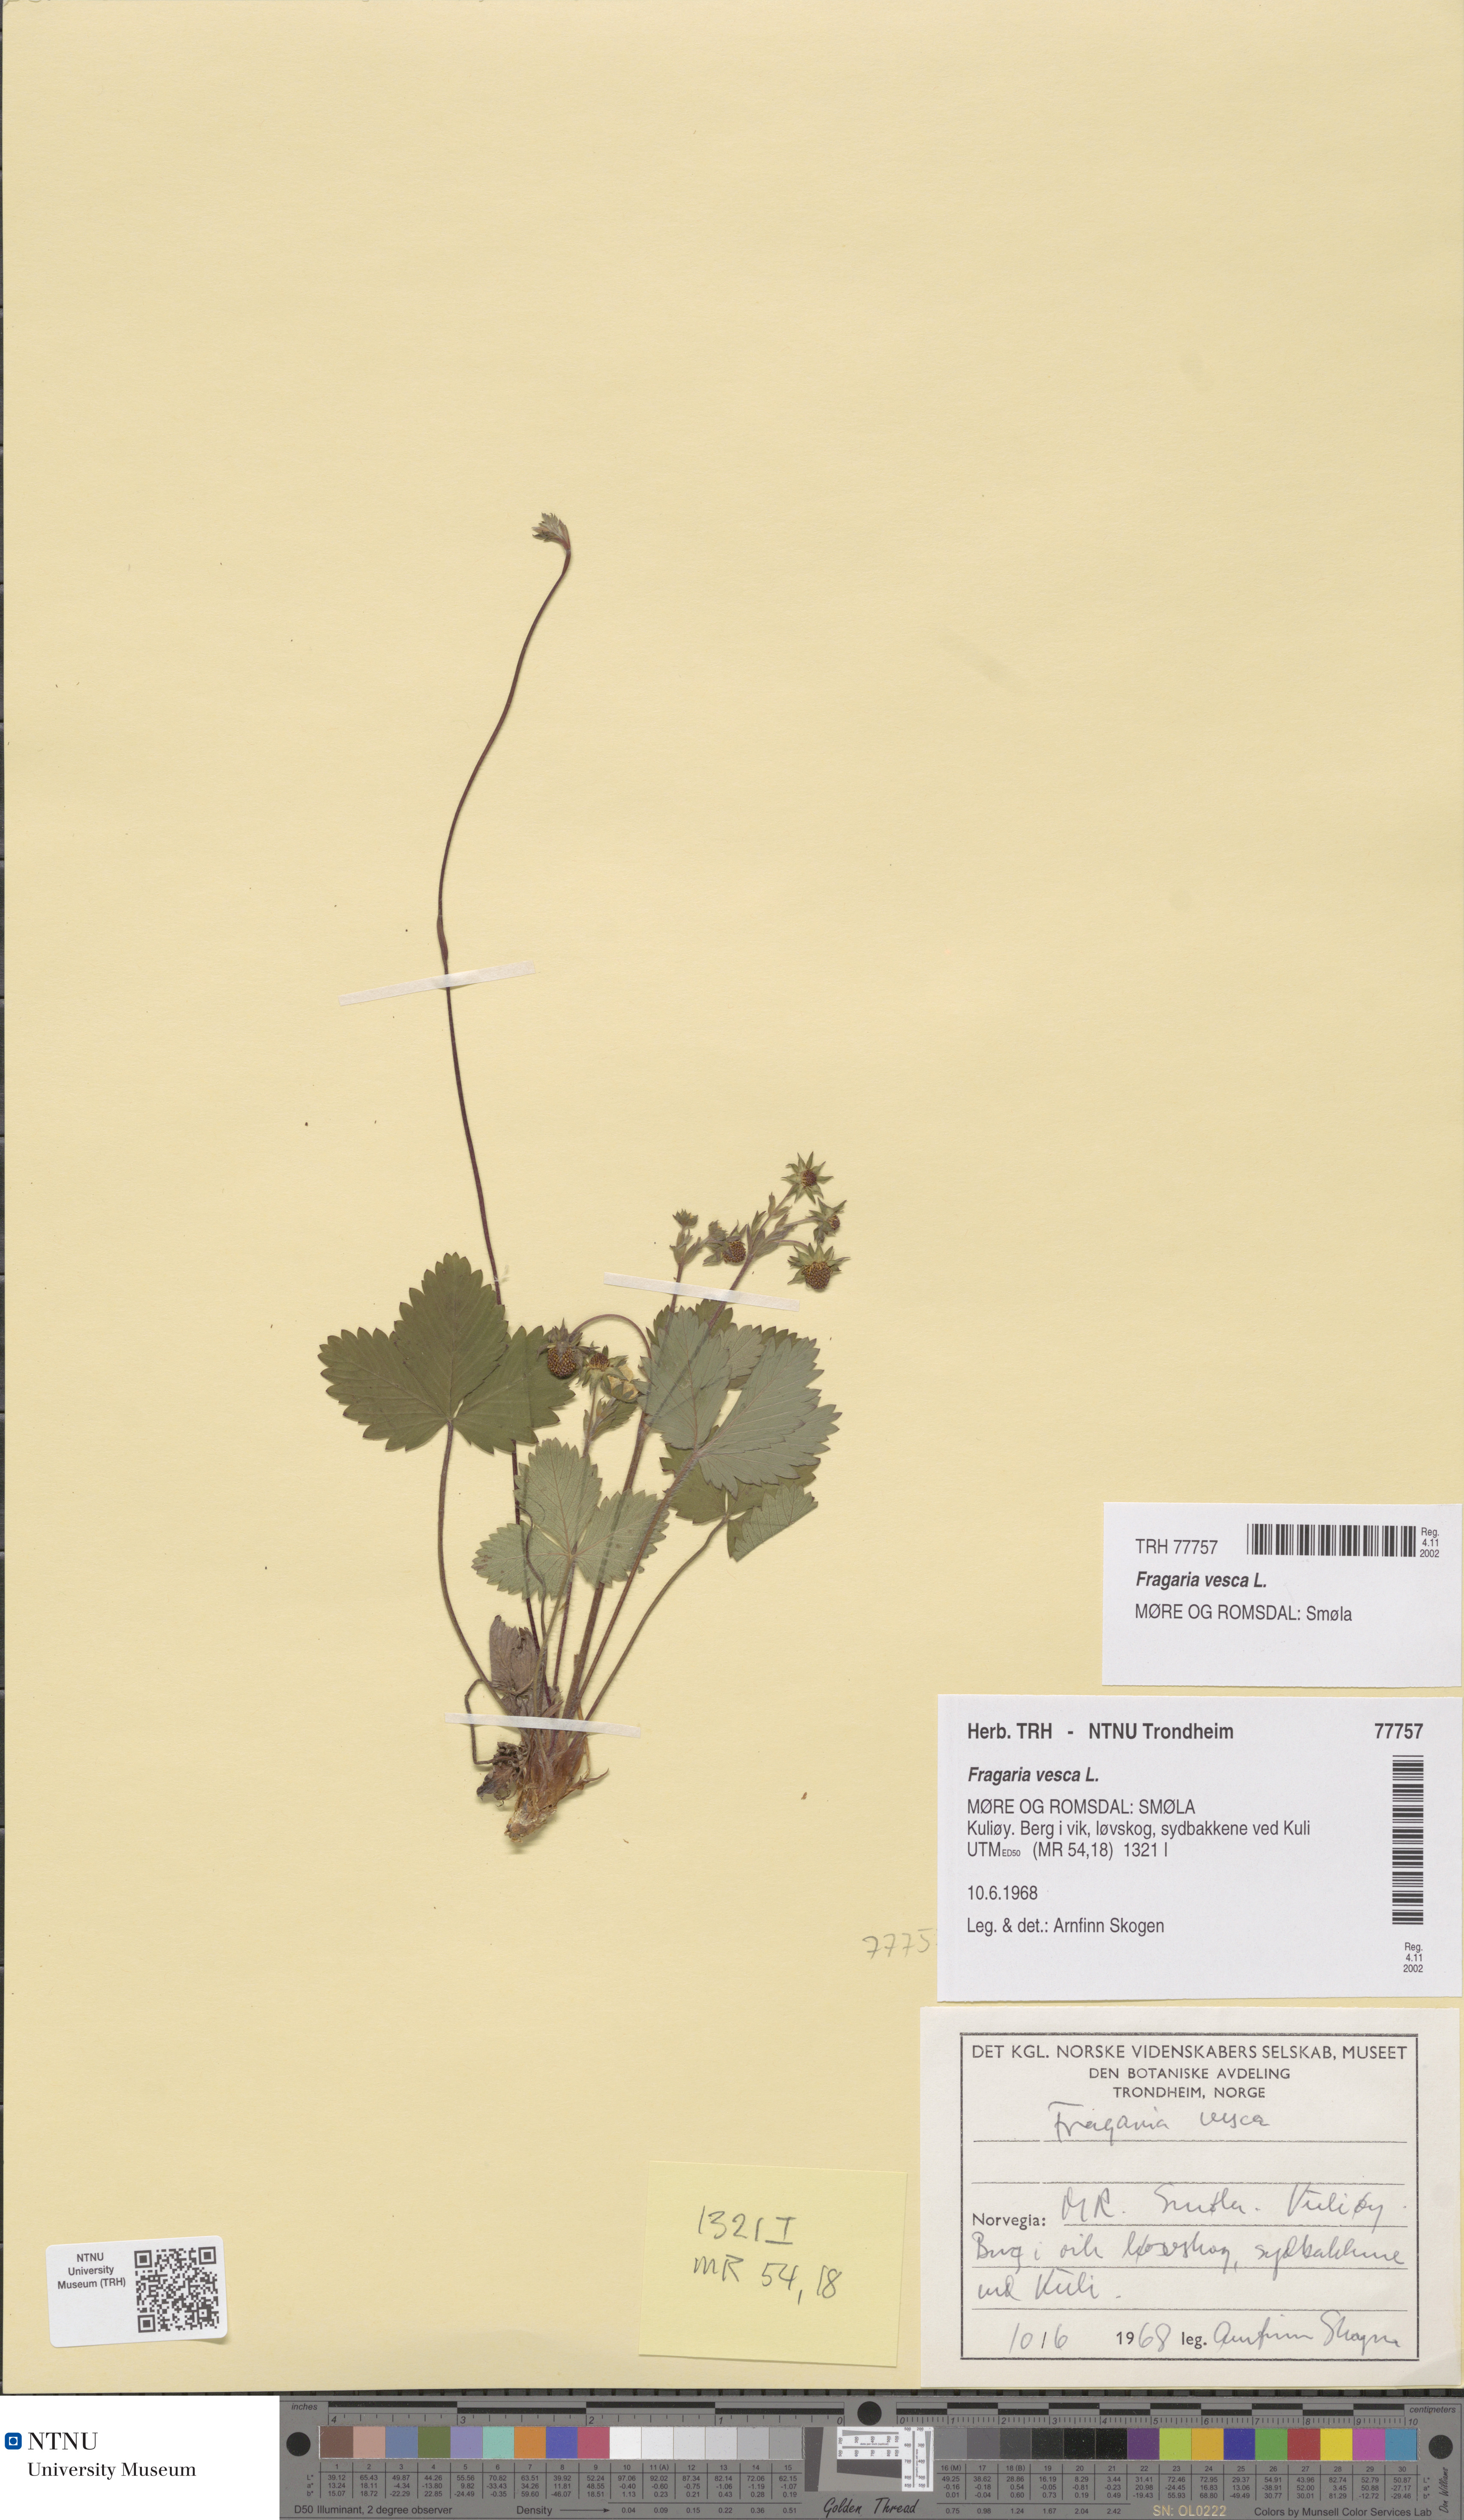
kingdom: Plantae
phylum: Tracheophyta
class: Magnoliopsida
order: Rosales
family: Rosaceae
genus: Fragaria
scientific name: Fragaria vesca
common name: Wild strawberry
